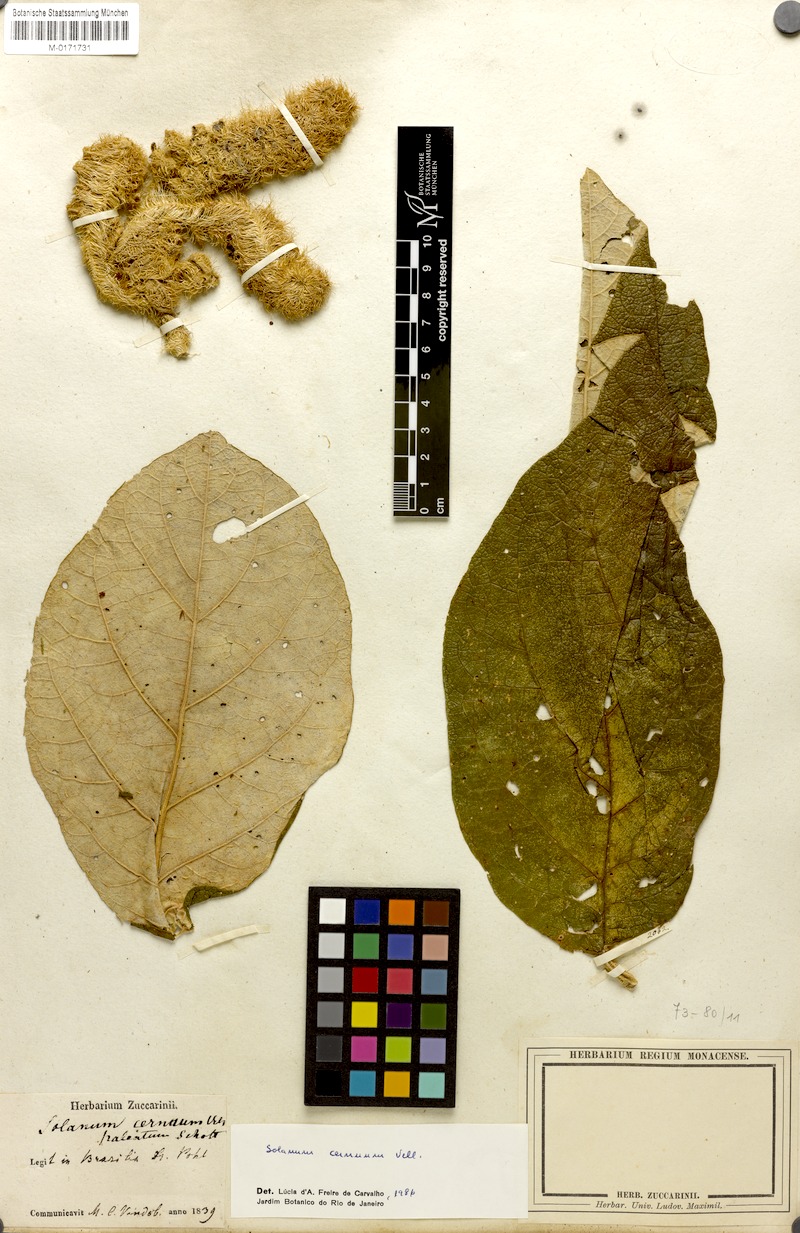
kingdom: Plantae
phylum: Tracheophyta
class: Magnoliopsida
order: Solanales
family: Solanaceae
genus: Solanum
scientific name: Solanum cernuum
